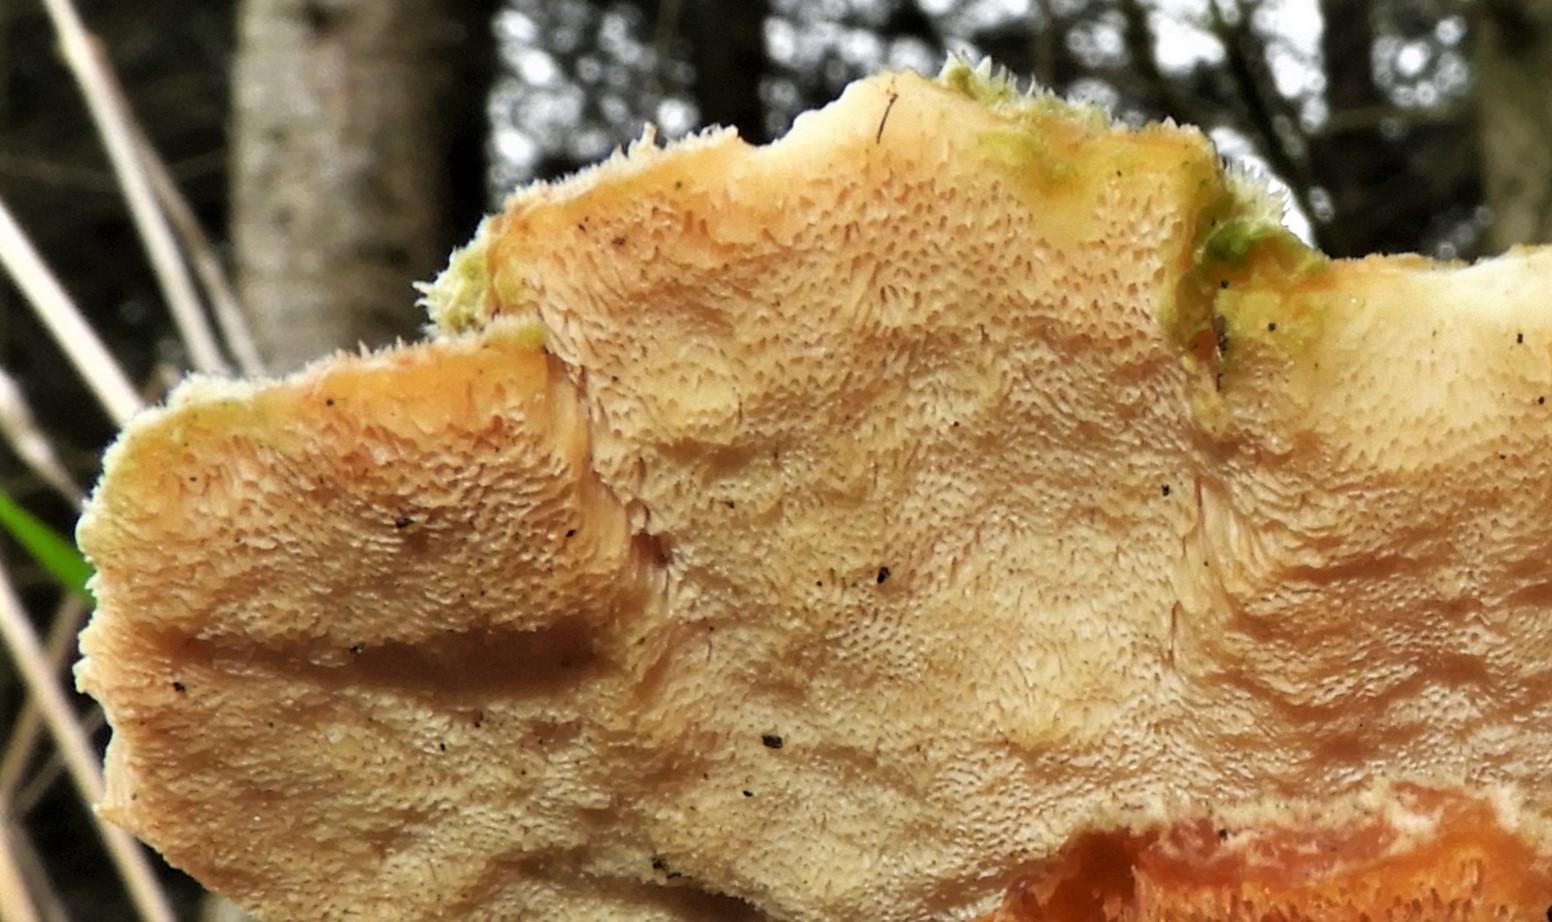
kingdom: Fungi
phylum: Basidiomycota
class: Agaricomycetes
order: Polyporales
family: Polyporaceae
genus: Trametes
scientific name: Trametes ochracea
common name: bæltet læderporesvamp
